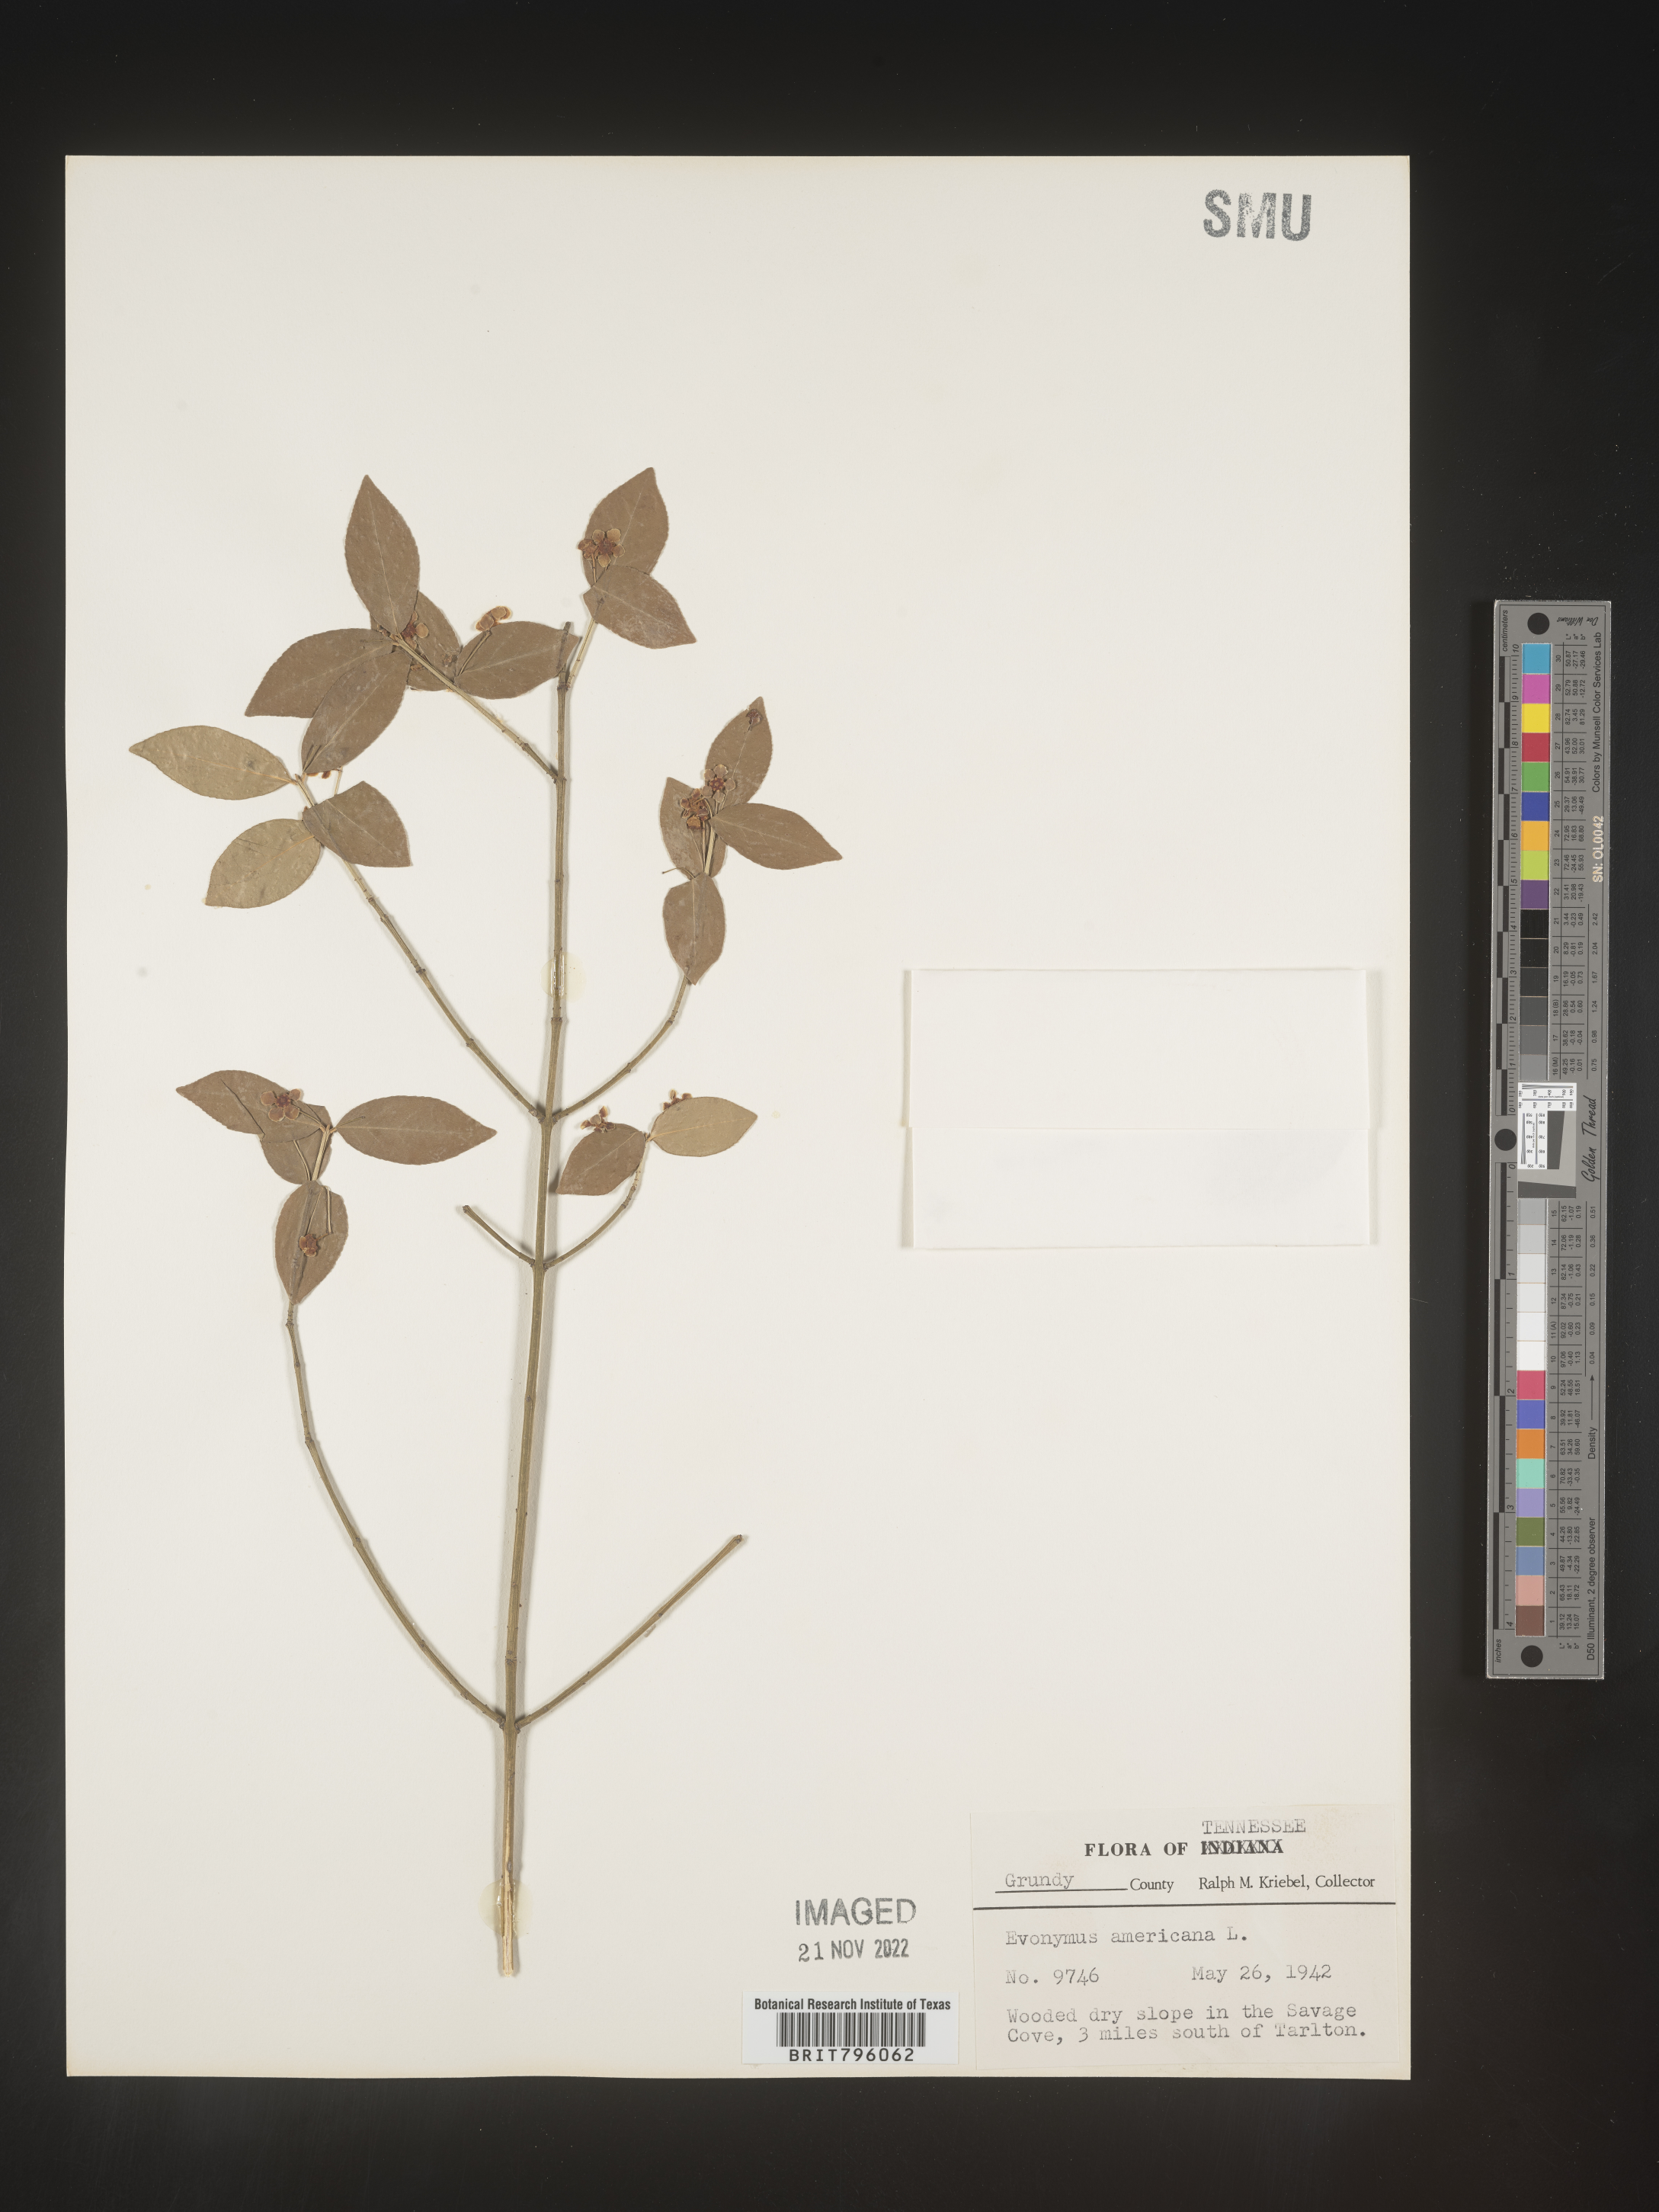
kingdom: Plantae
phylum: Tracheophyta
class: Magnoliopsida
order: Celastrales
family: Celastraceae
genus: Euonymus
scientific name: Euonymus americanus
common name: Bursting-heart
